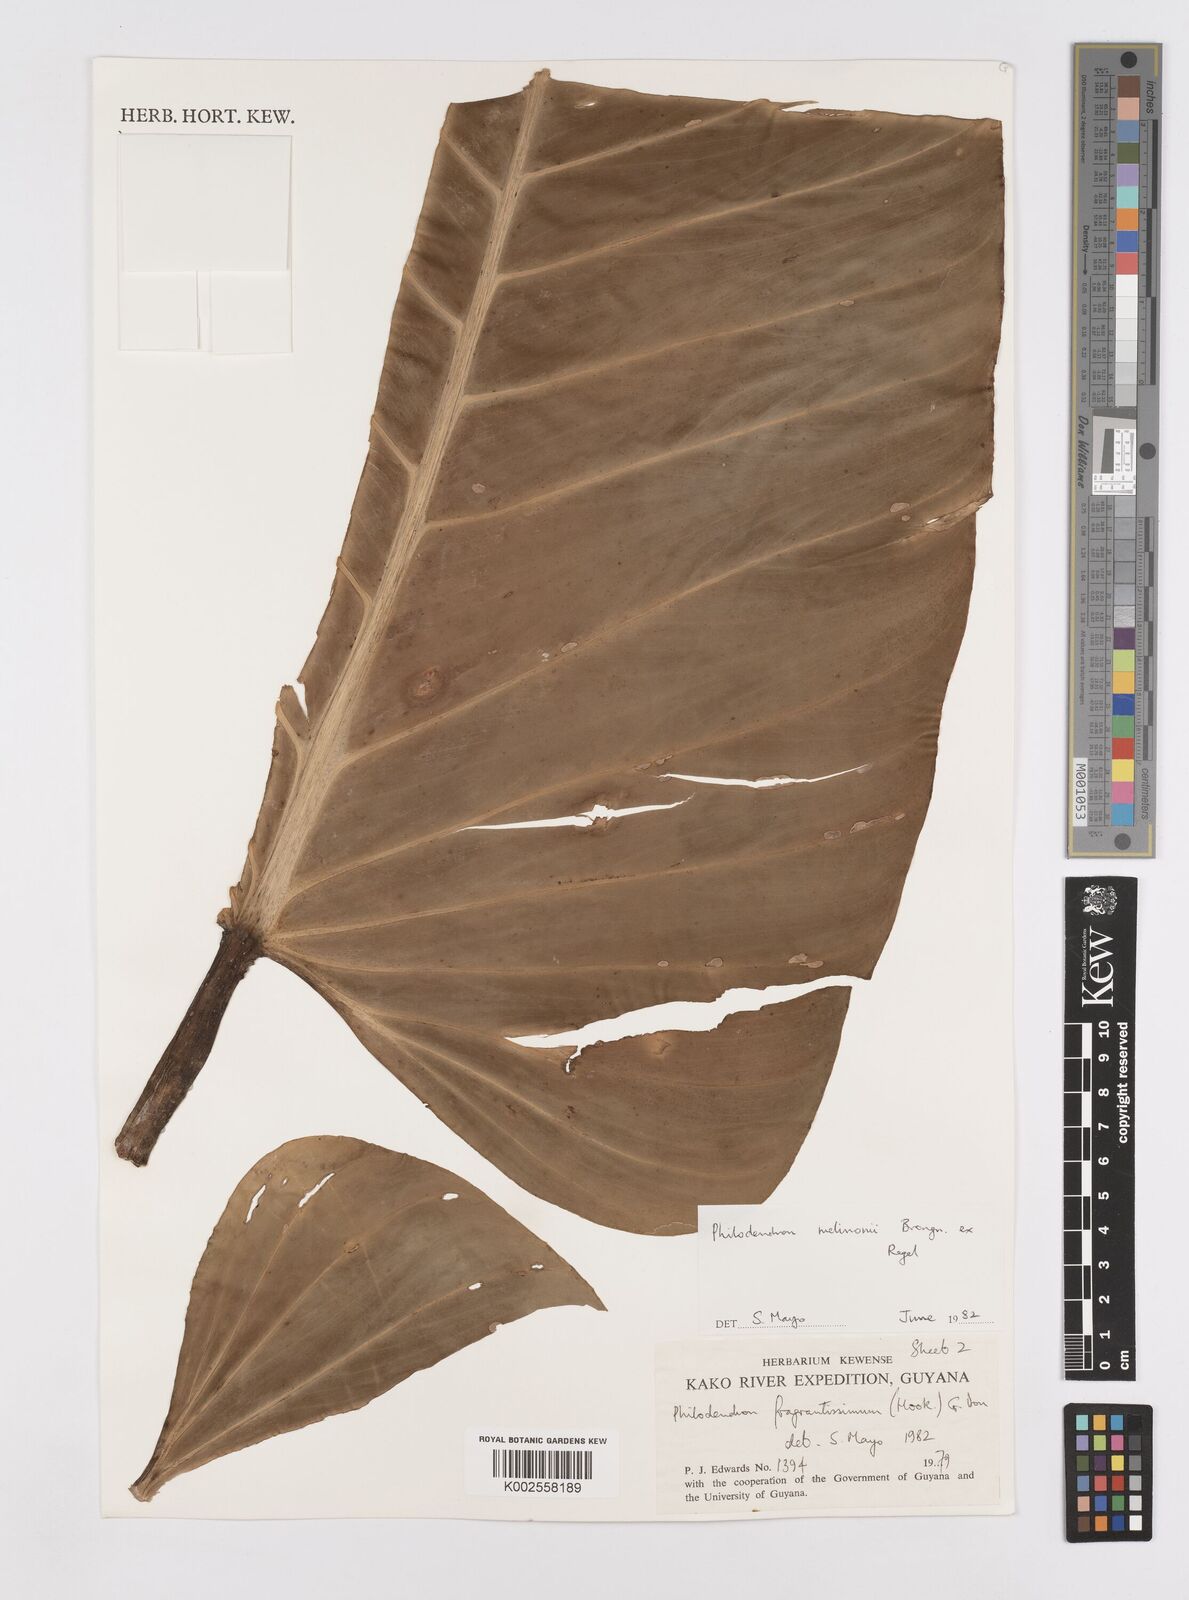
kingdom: Plantae
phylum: Tracheophyta
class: Liliopsida
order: Alismatales
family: Araceae
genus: Philodendron
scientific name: Philodendron melinonii
